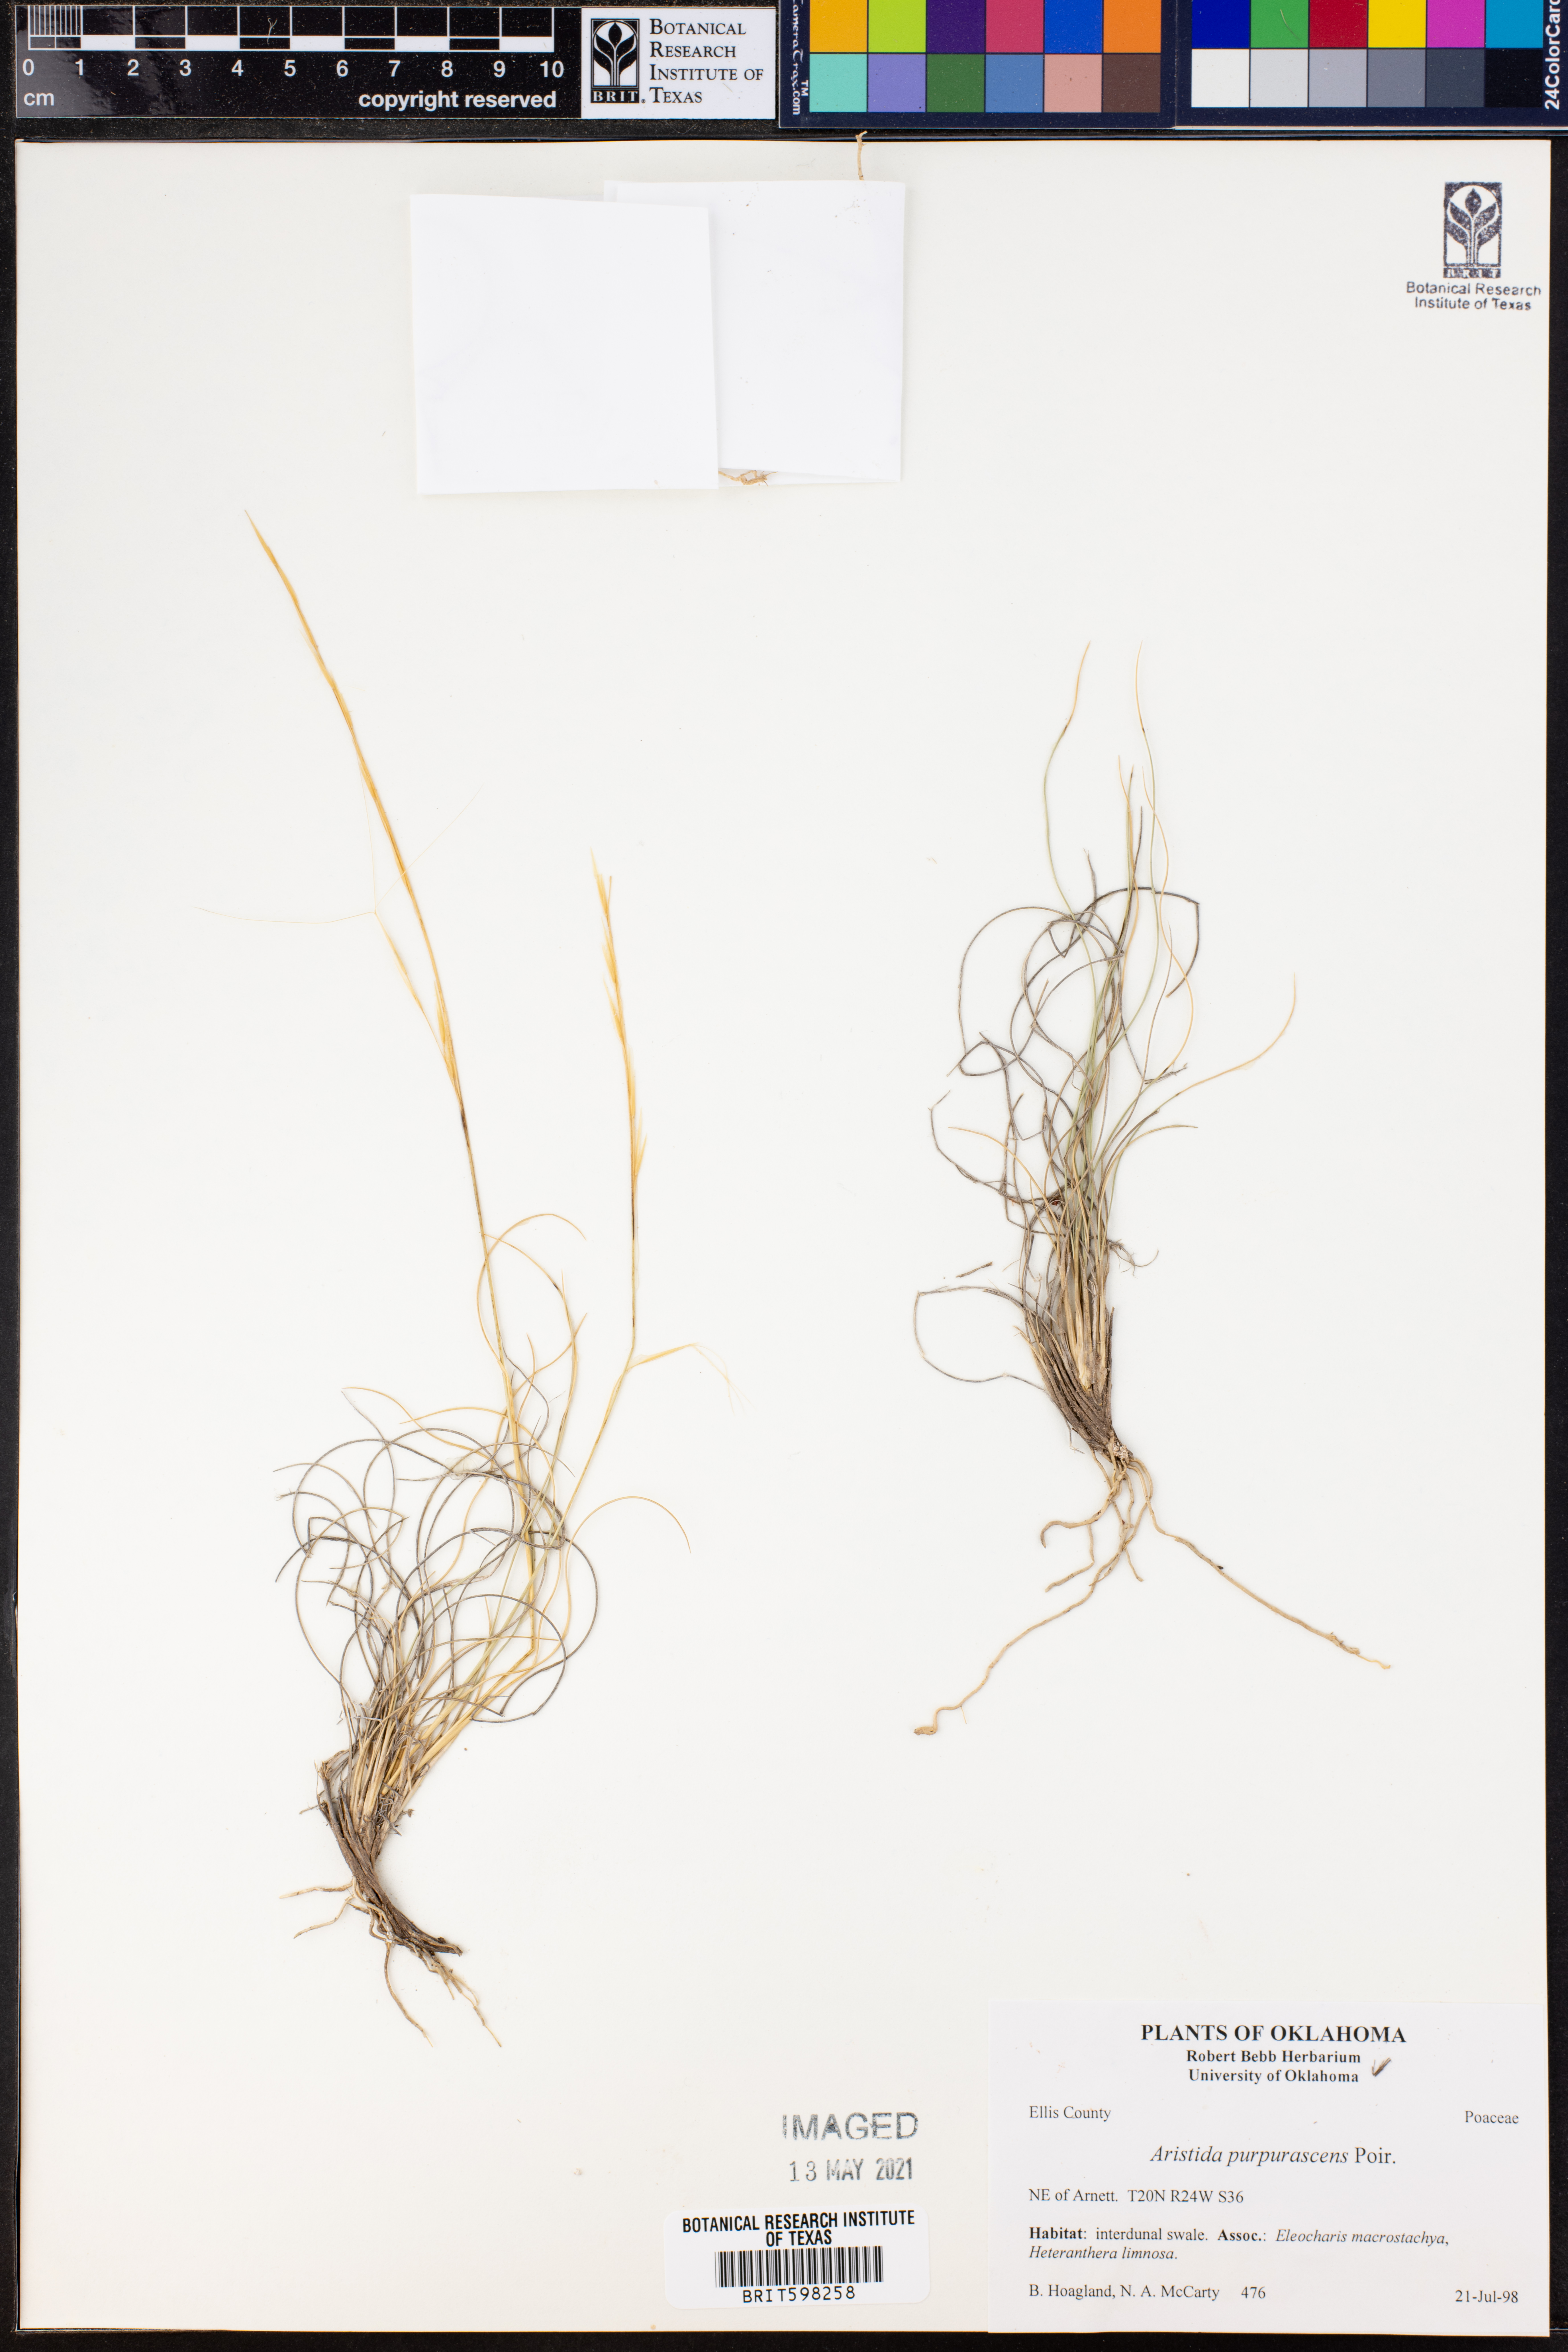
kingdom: Plantae
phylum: Tracheophyta
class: Liliopsida
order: Poales
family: Poaceae
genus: Aristida
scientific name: Aristida purpurascens
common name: Arrow-feather
